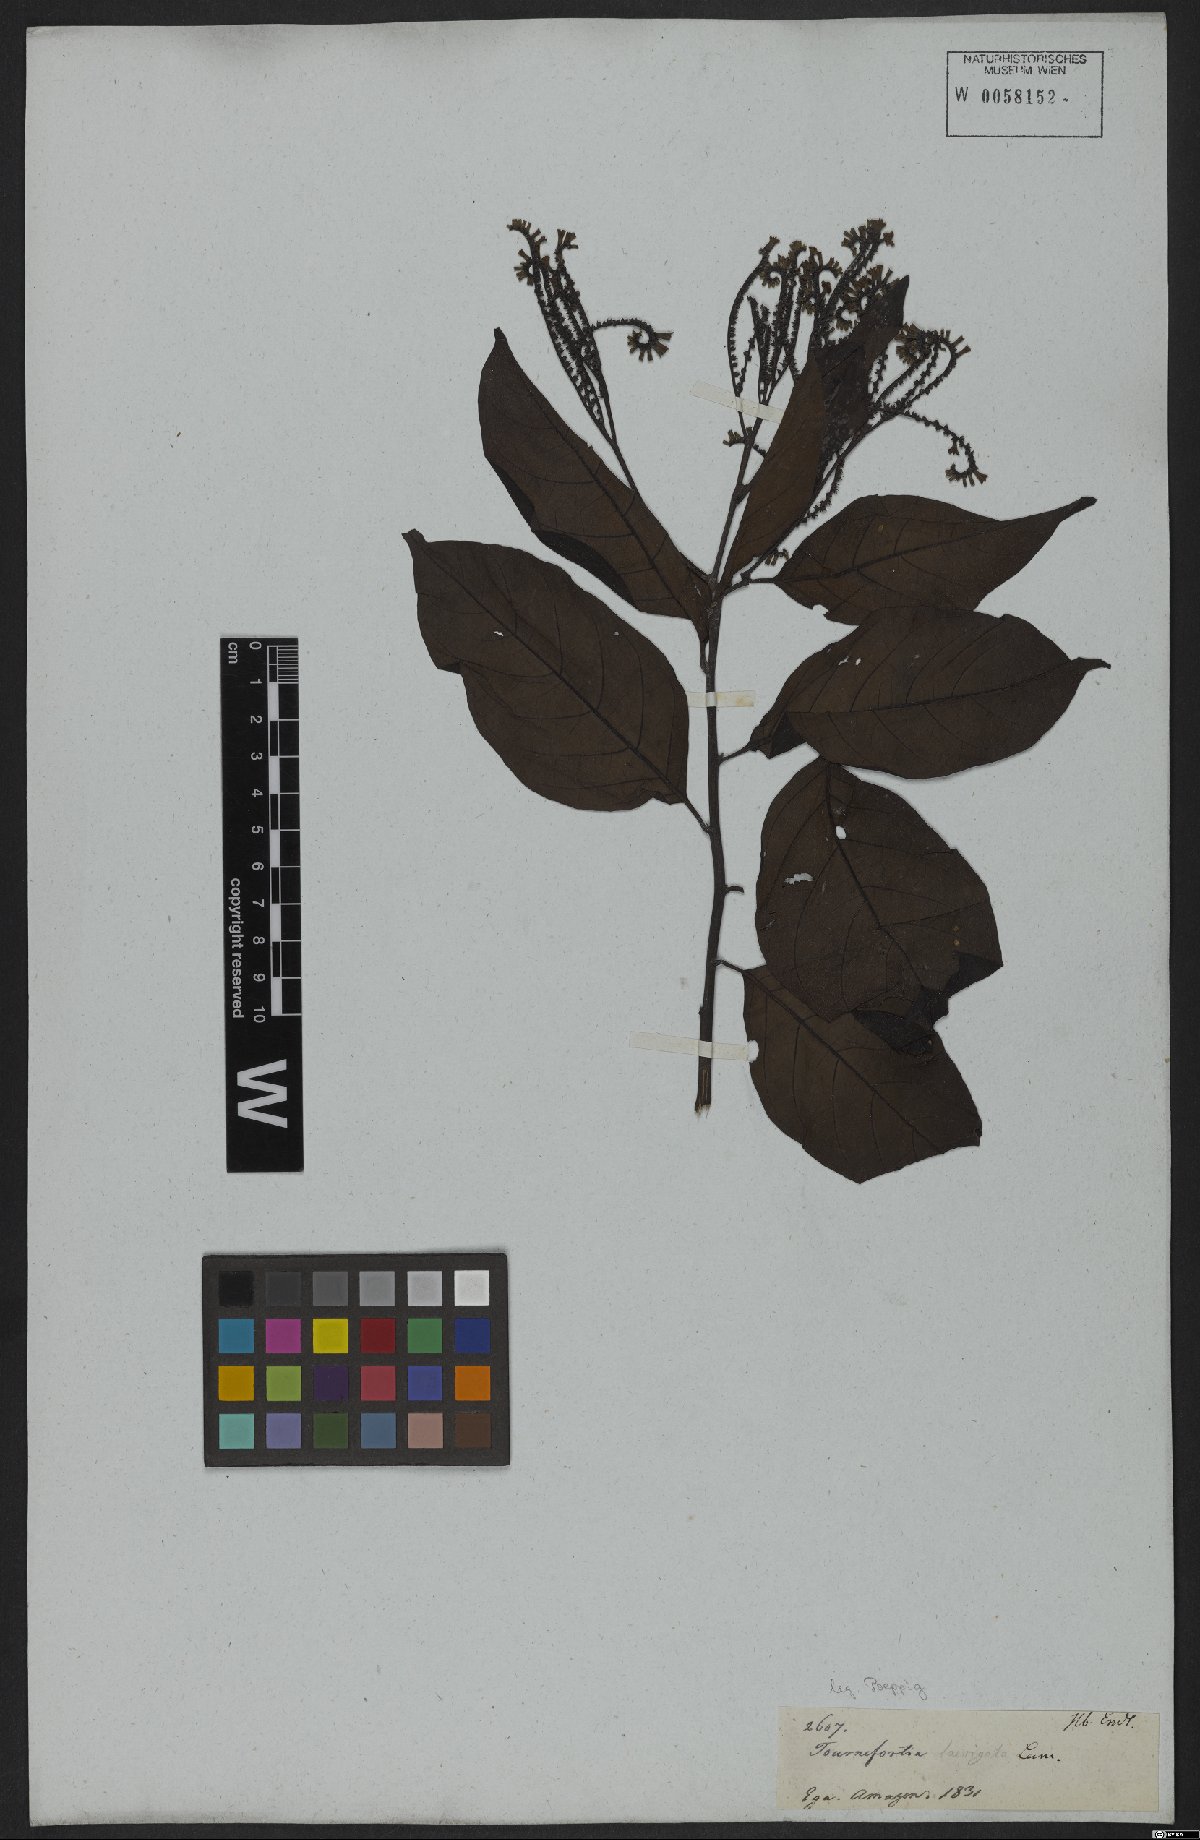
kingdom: Plantae
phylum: Tracheophyta
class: Magnoliopsida
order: Boraginales
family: Heliotropiaceae
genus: Heliotropium
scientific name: Heliotropium laevigatum
